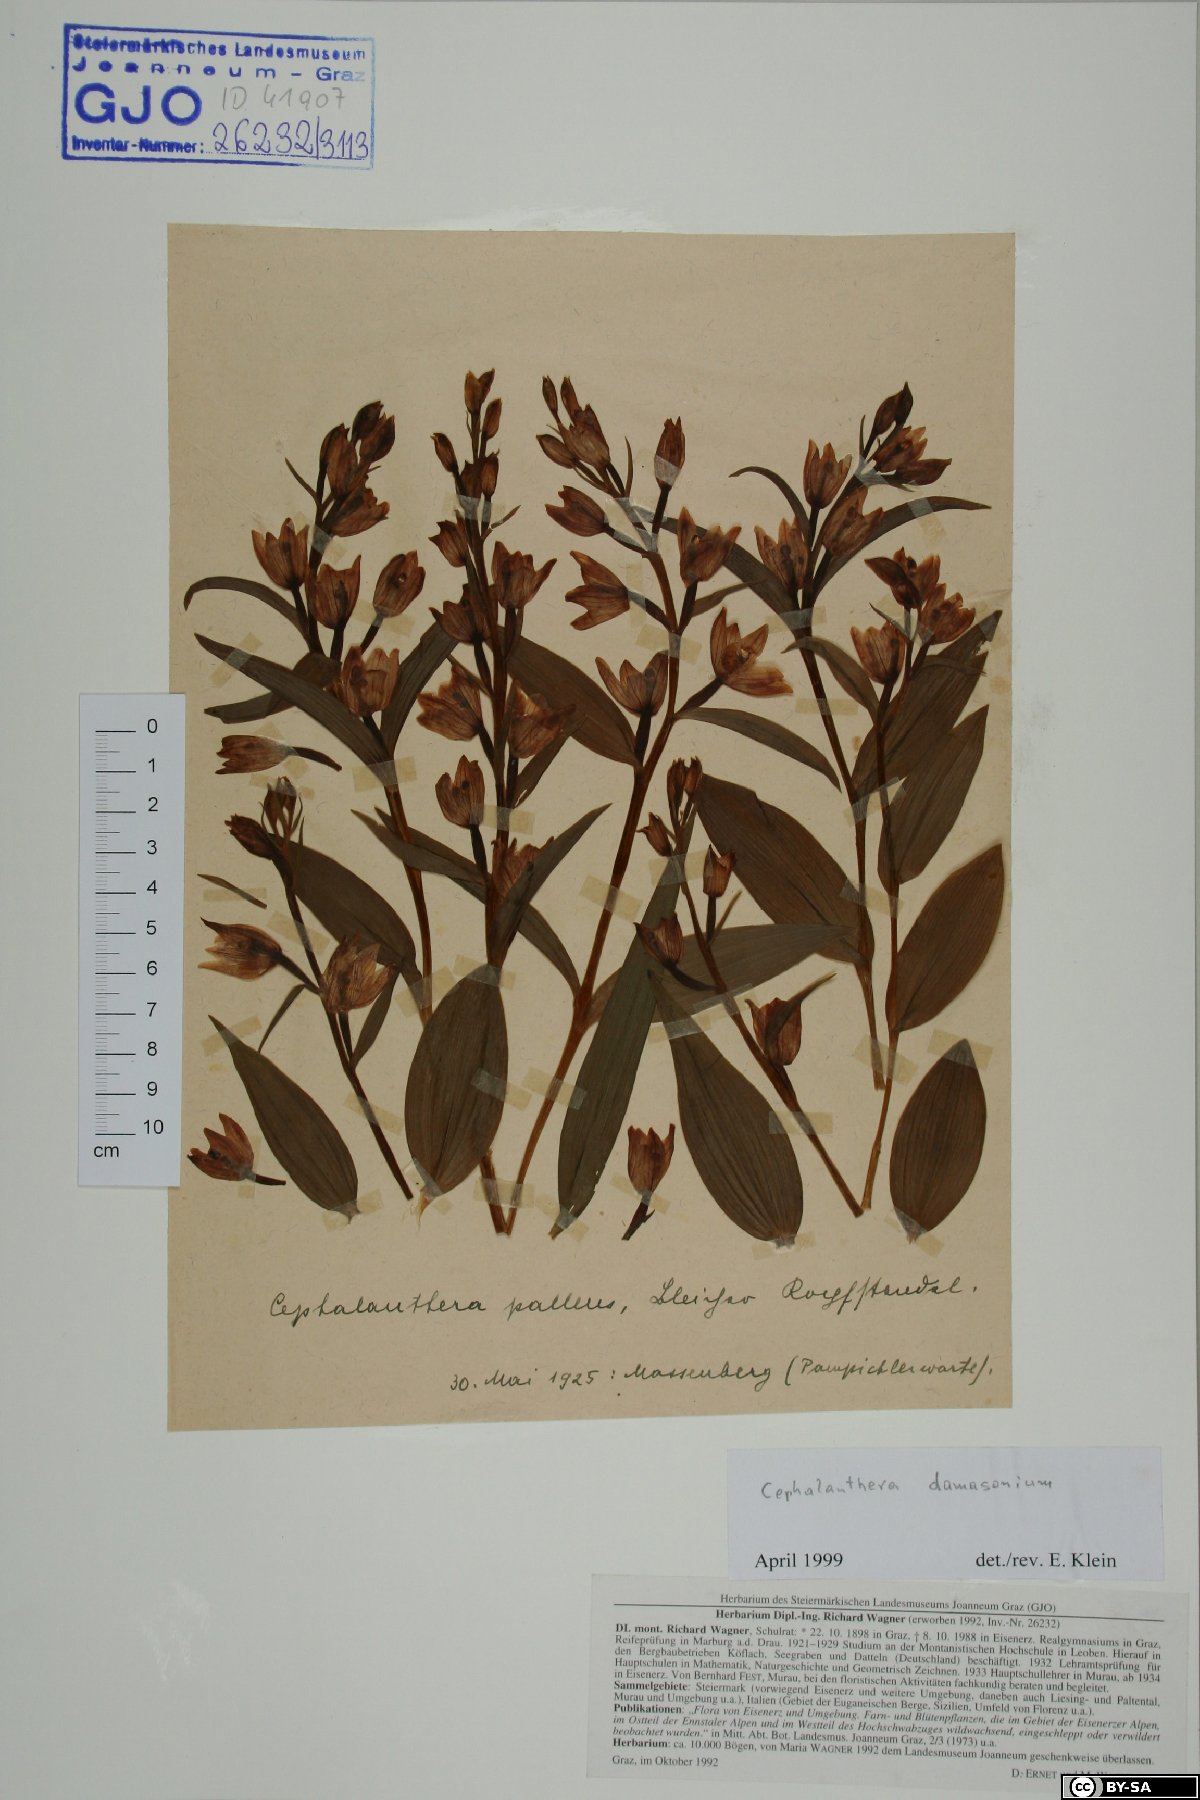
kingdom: Plantae
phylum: Tracheophyta
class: Liliopsida
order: Asparagales
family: Orchidaceae
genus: Cephalanthera
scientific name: Cephalanthera damasonium
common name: White helleborine
